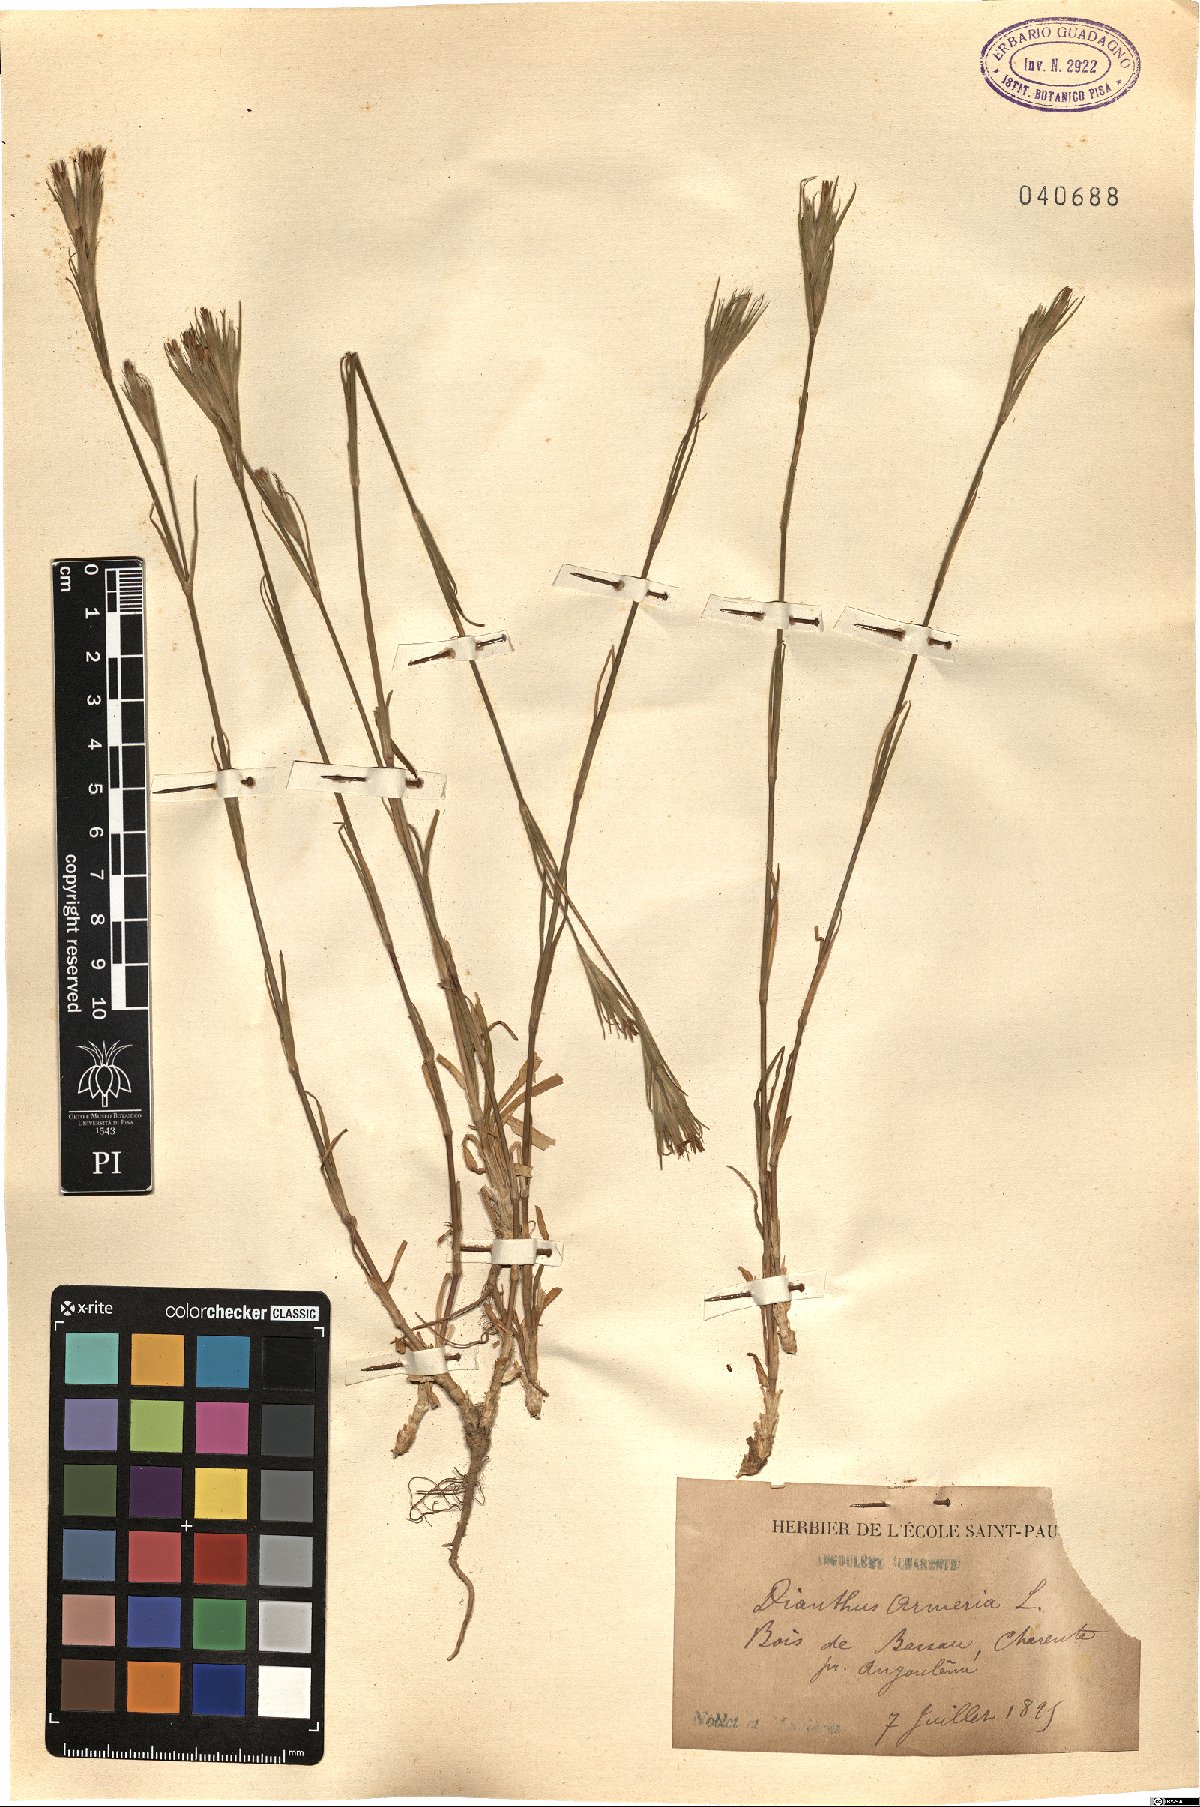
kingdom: Plantae
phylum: Tracheophyta
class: Magnoliopsida
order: Caryophyllales
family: Caryophyllaceae
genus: Dianthus
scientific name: Dianthus armeria
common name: Deptford pink
